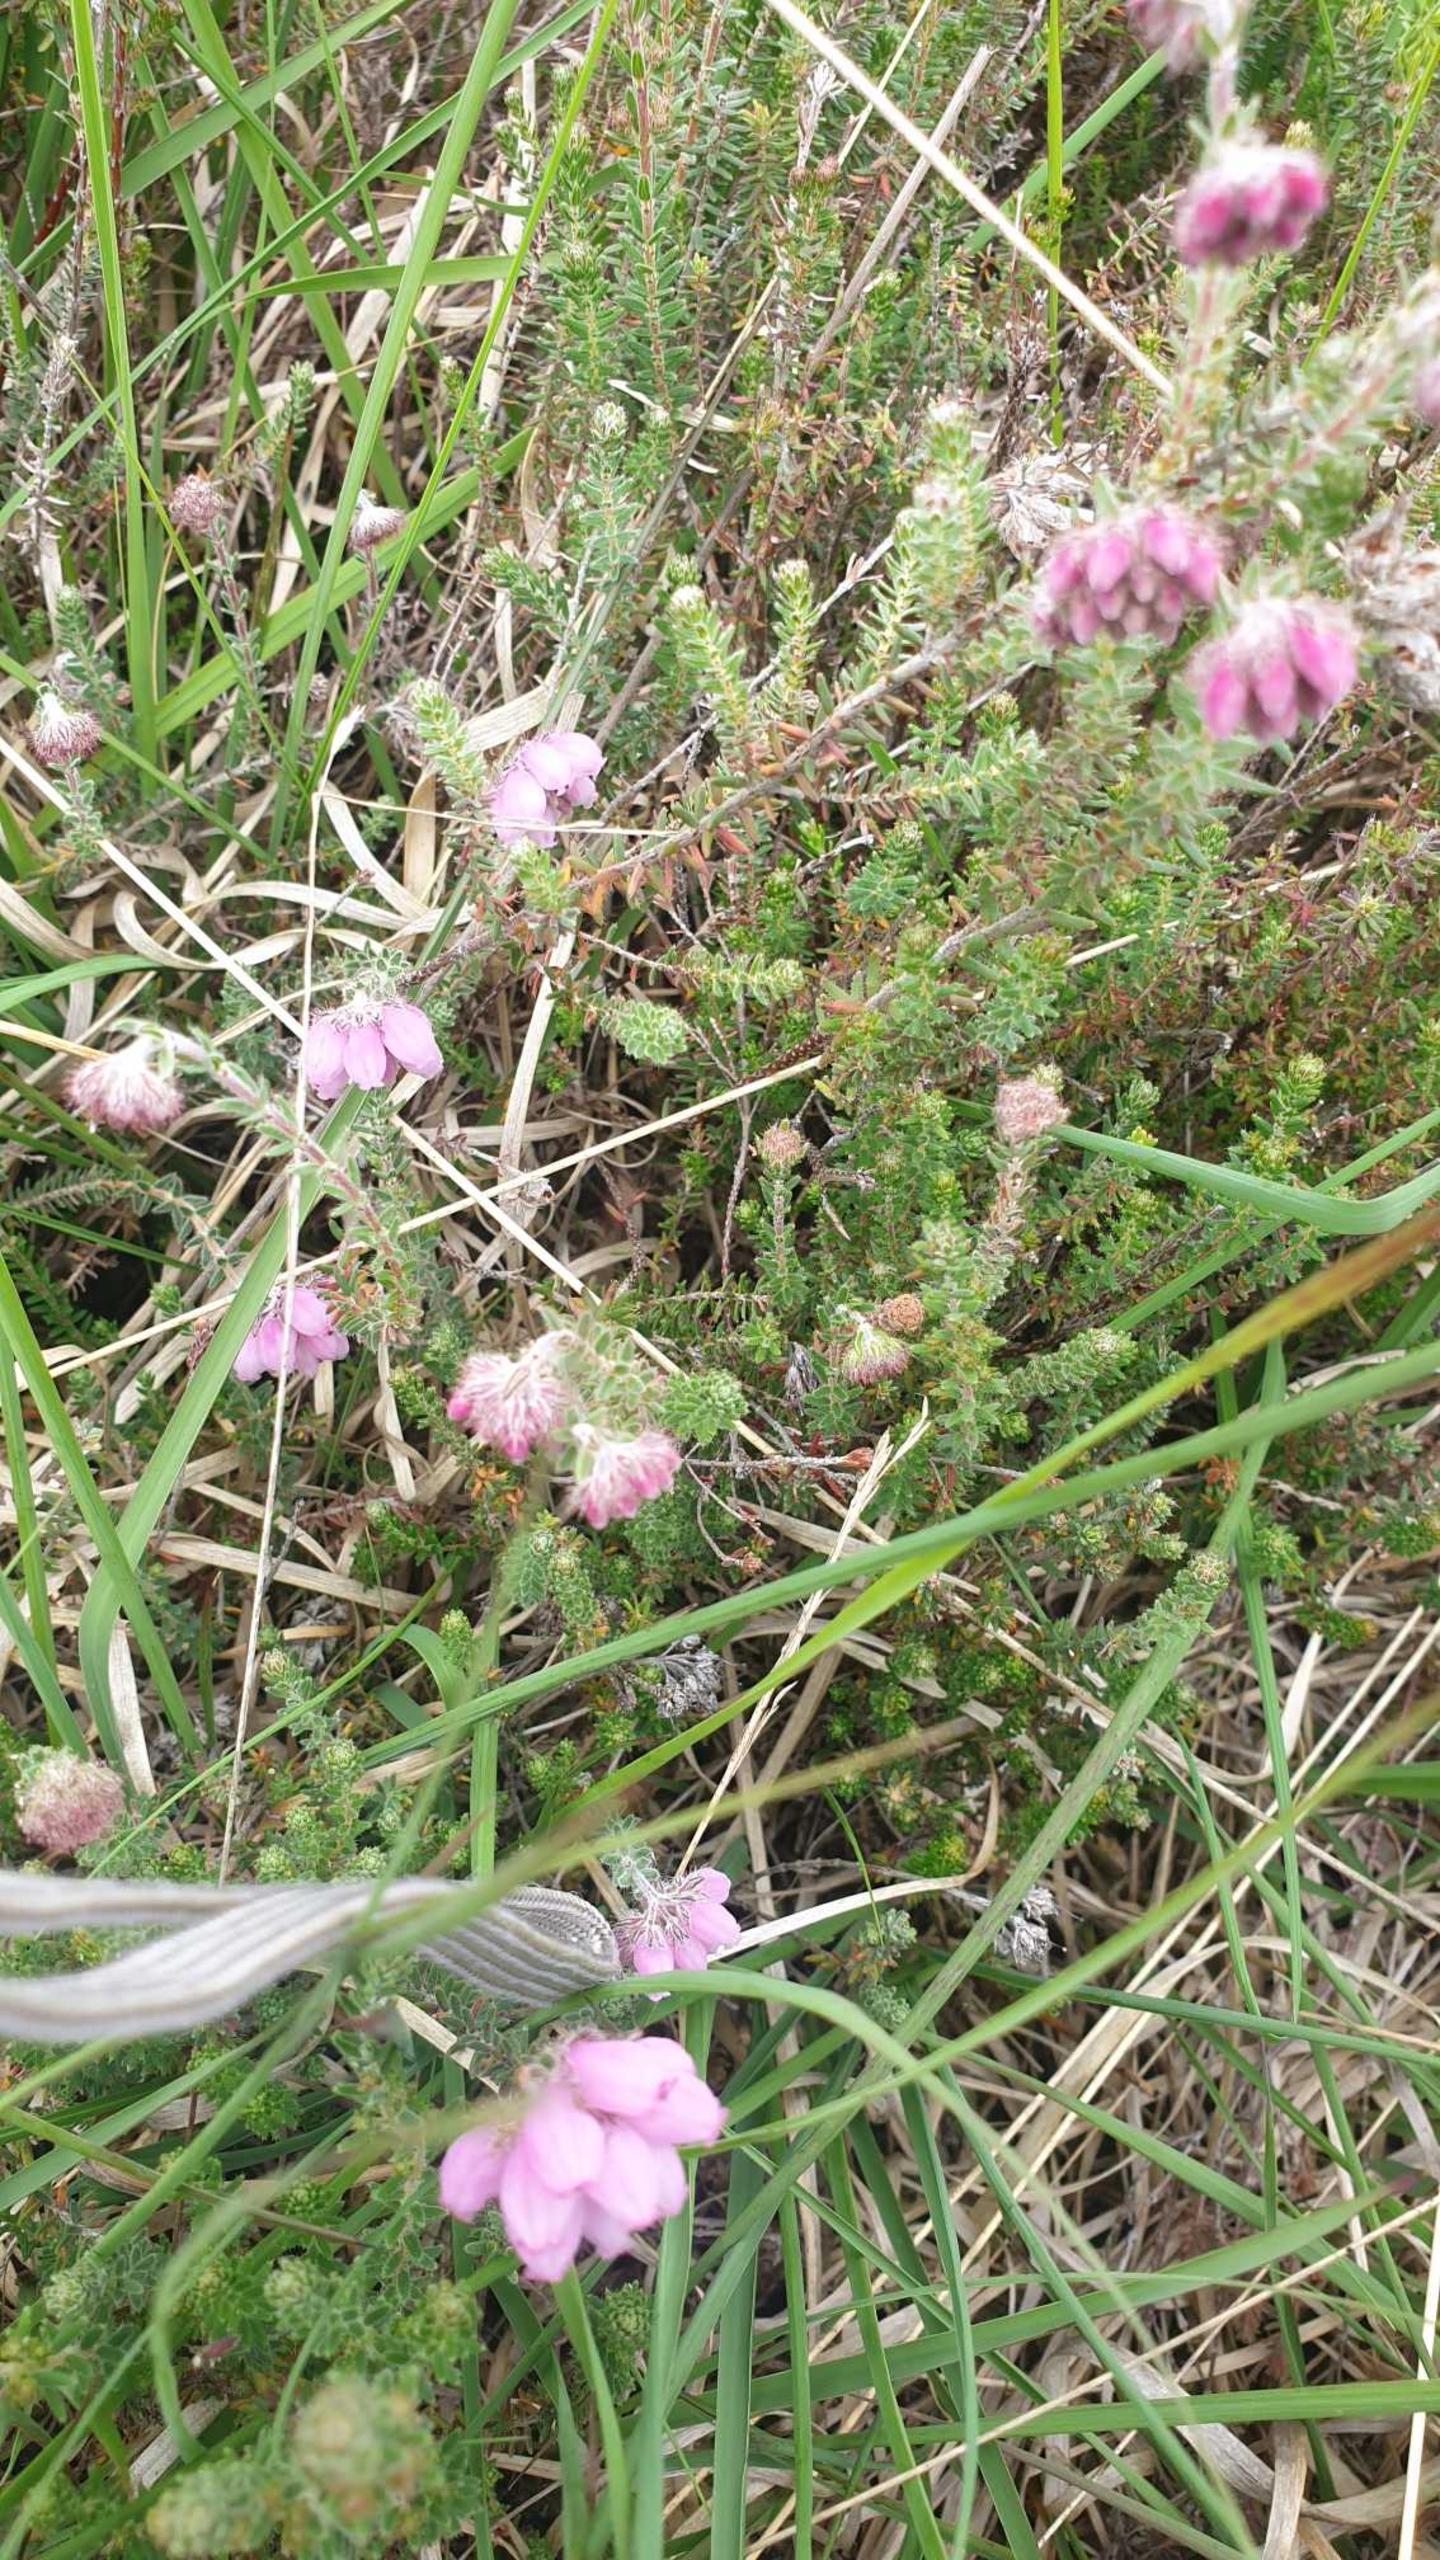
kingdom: Plantae
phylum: Tracheophyta
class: Magnoliopsida
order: Ericales
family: Ericaceae
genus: Erica
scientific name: Erica tetralix
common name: Klokkelyng
